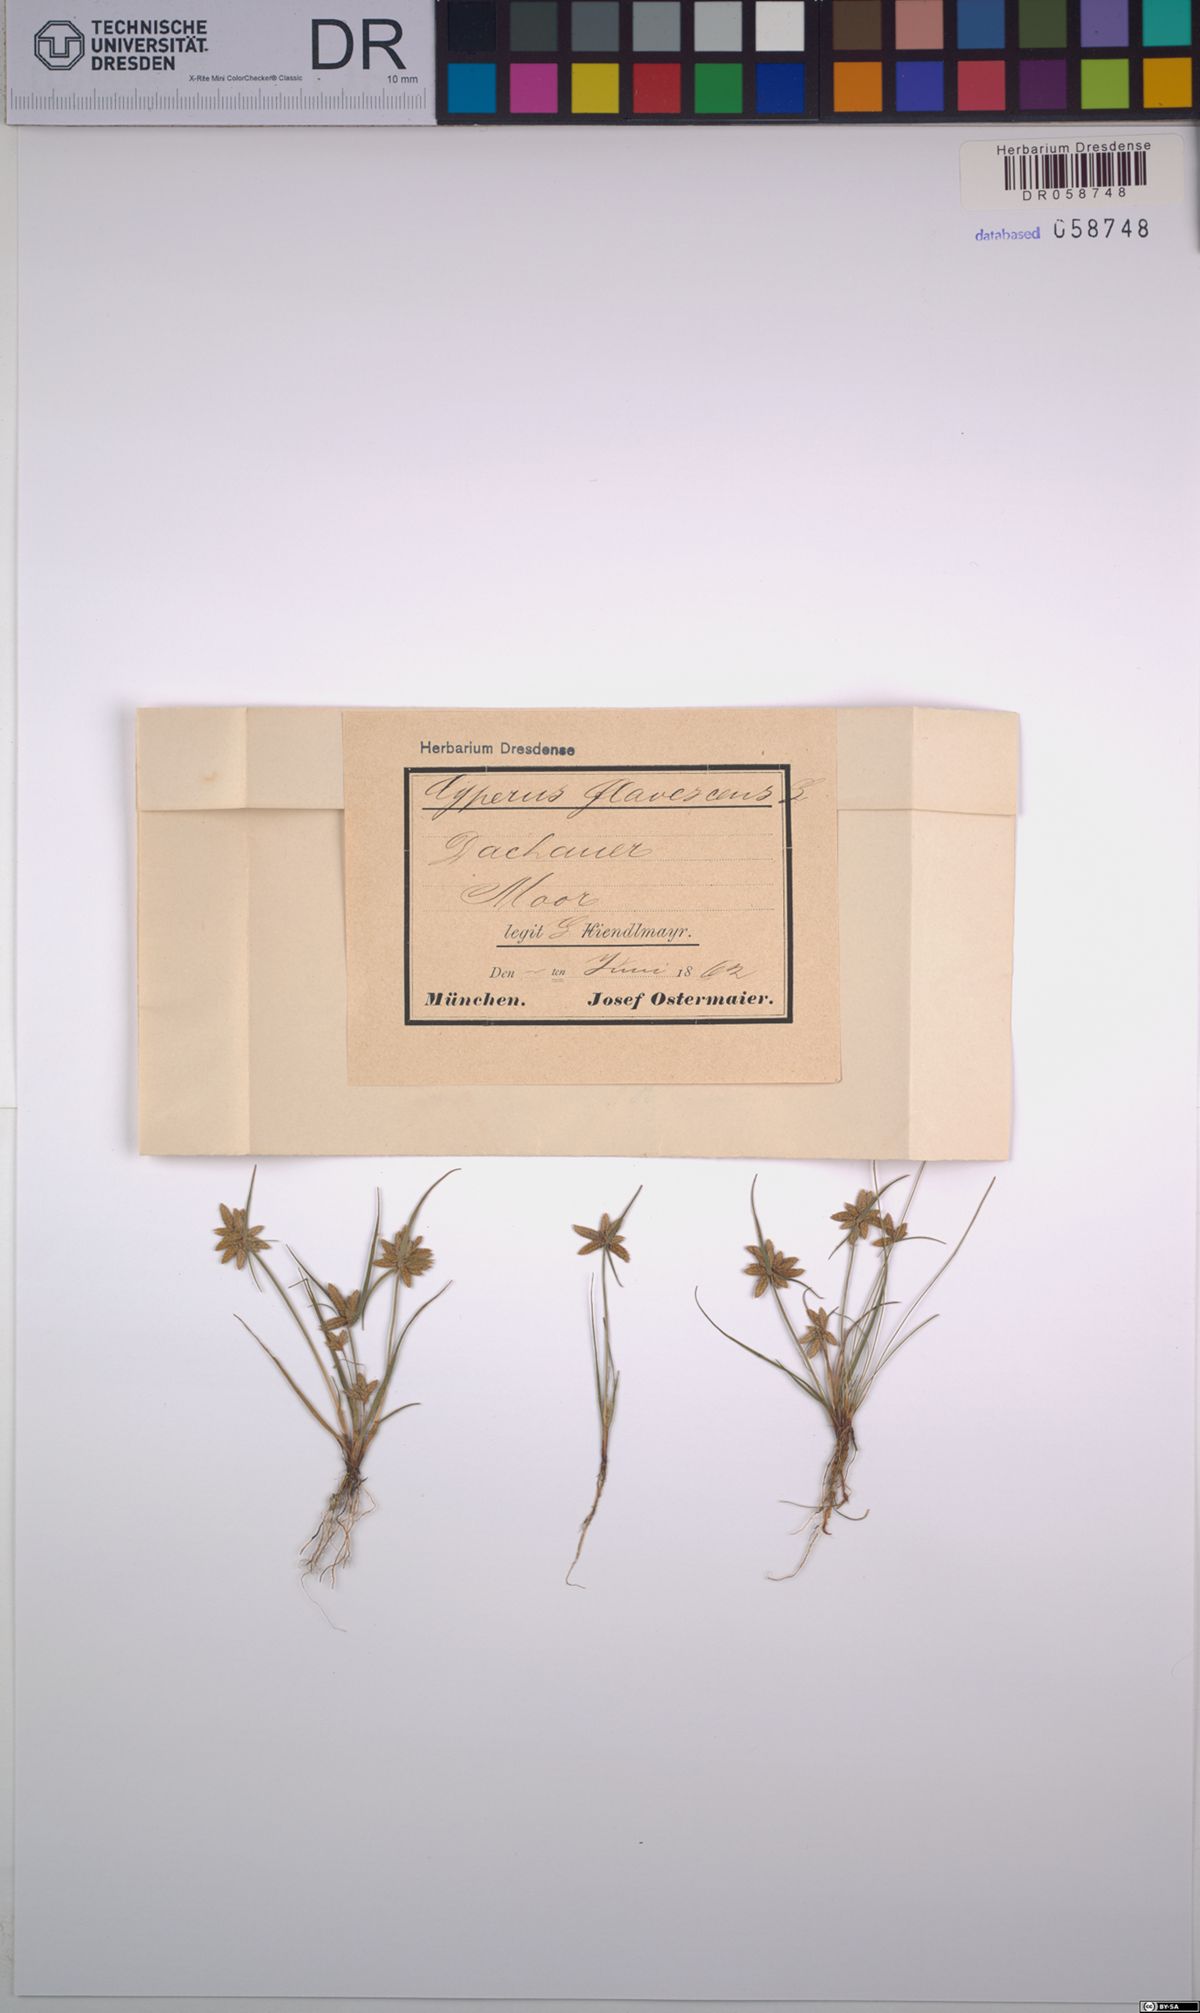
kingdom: Plantae
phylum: Tracheophyta
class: Liliopsida
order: Poales
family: Cyperaceae
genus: Cyperus
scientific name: Cyperus flavescens
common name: Yellow galingale
